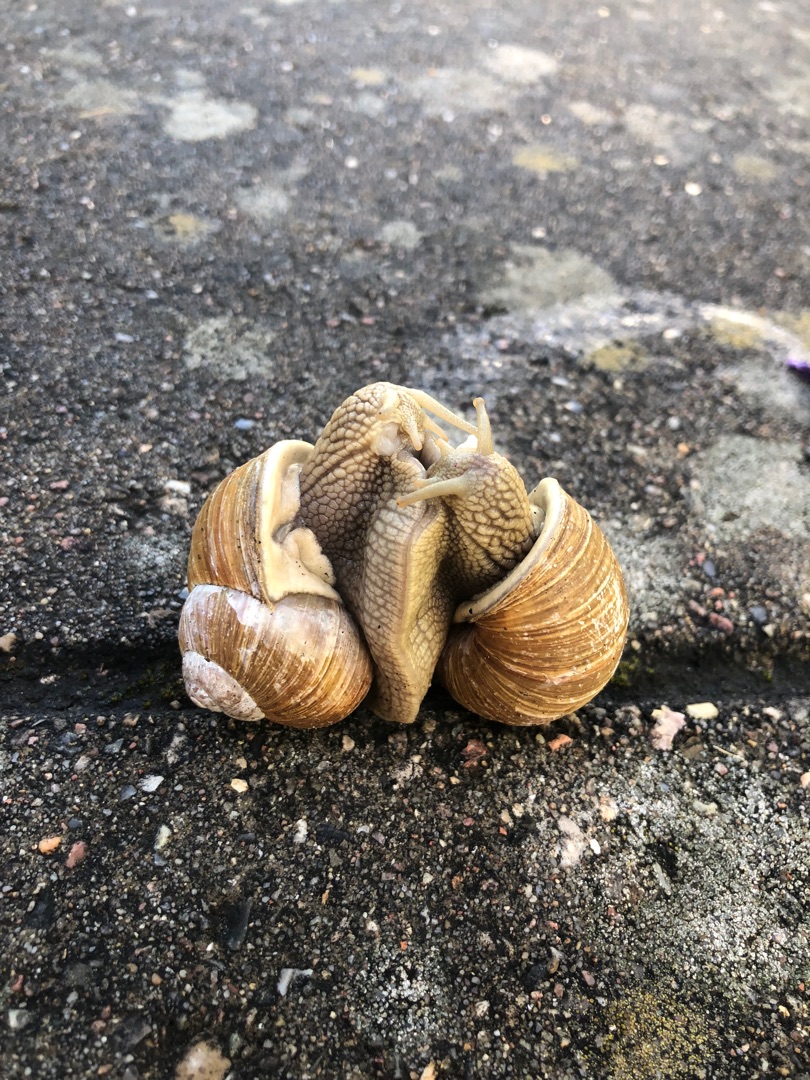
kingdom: Animalia
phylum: Mollusca
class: Gastropoda
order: Stylommatophora
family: Helicidae
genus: Helix
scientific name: Helix pomatia
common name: Vinbjergsnegl
